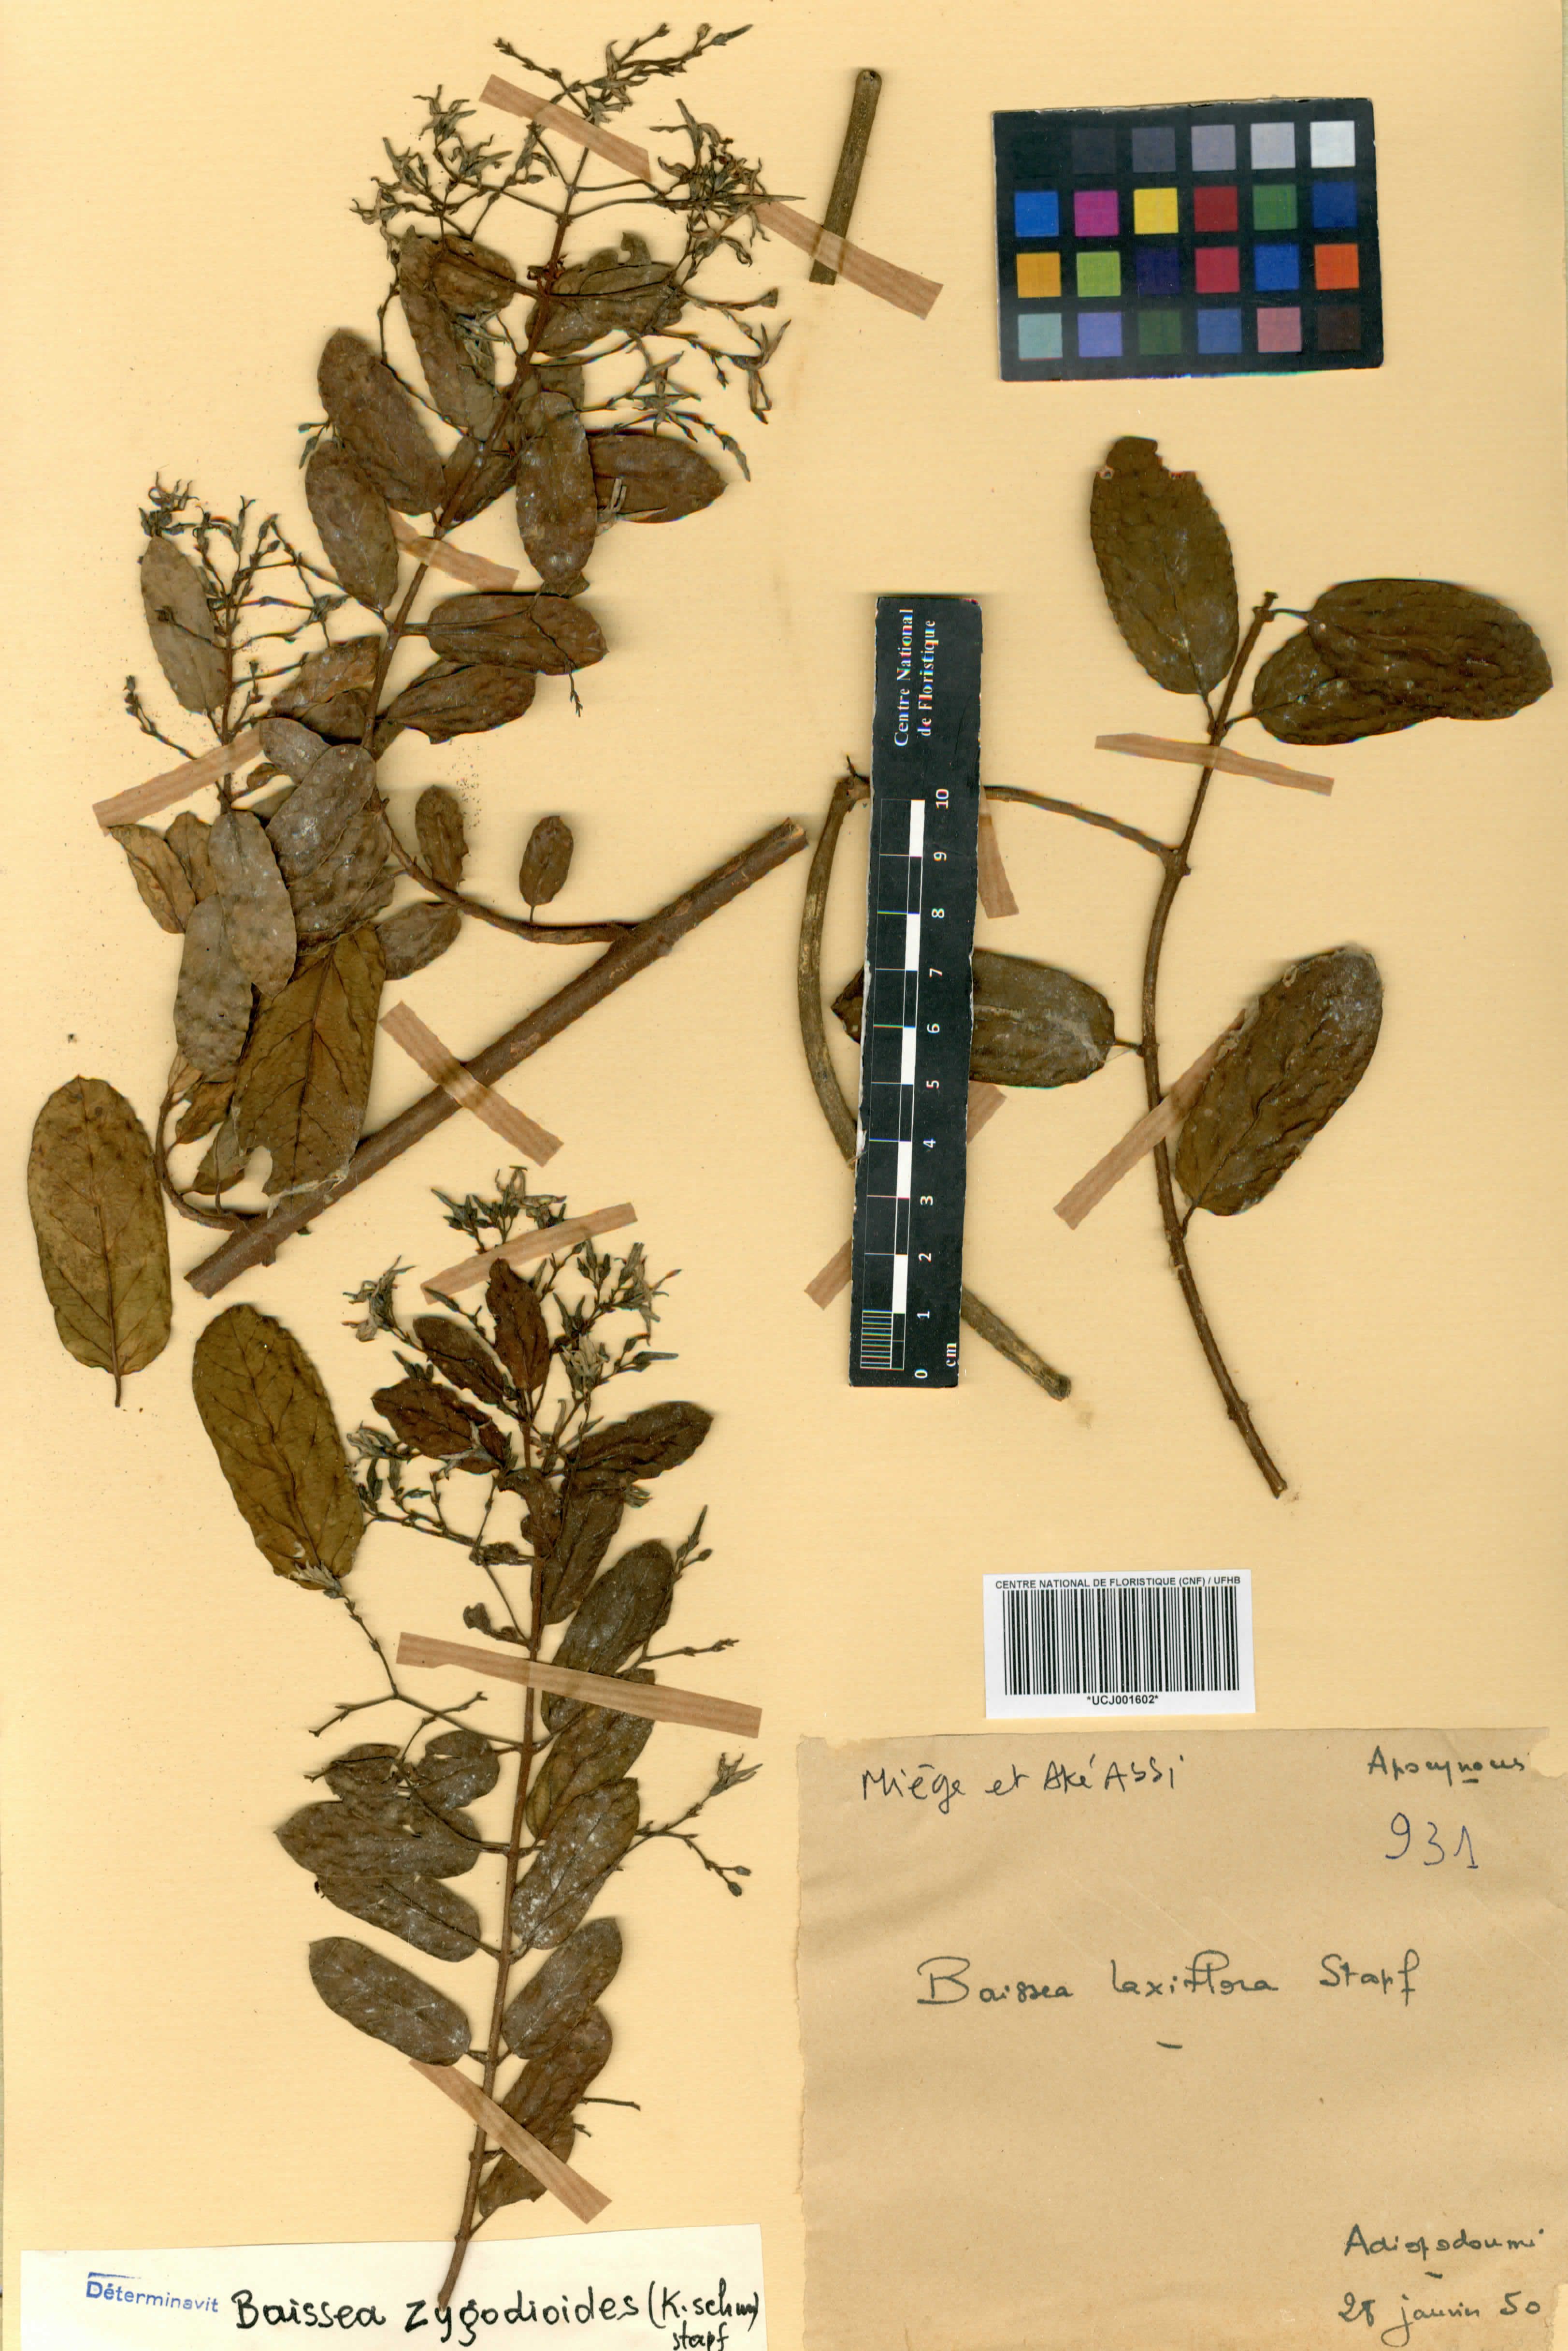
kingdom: Plantae
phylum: Tracheophyta
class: Magnoliopsida
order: Gentianales
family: Apocynaceae
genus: Baissea
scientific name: Baissea zygodioides
